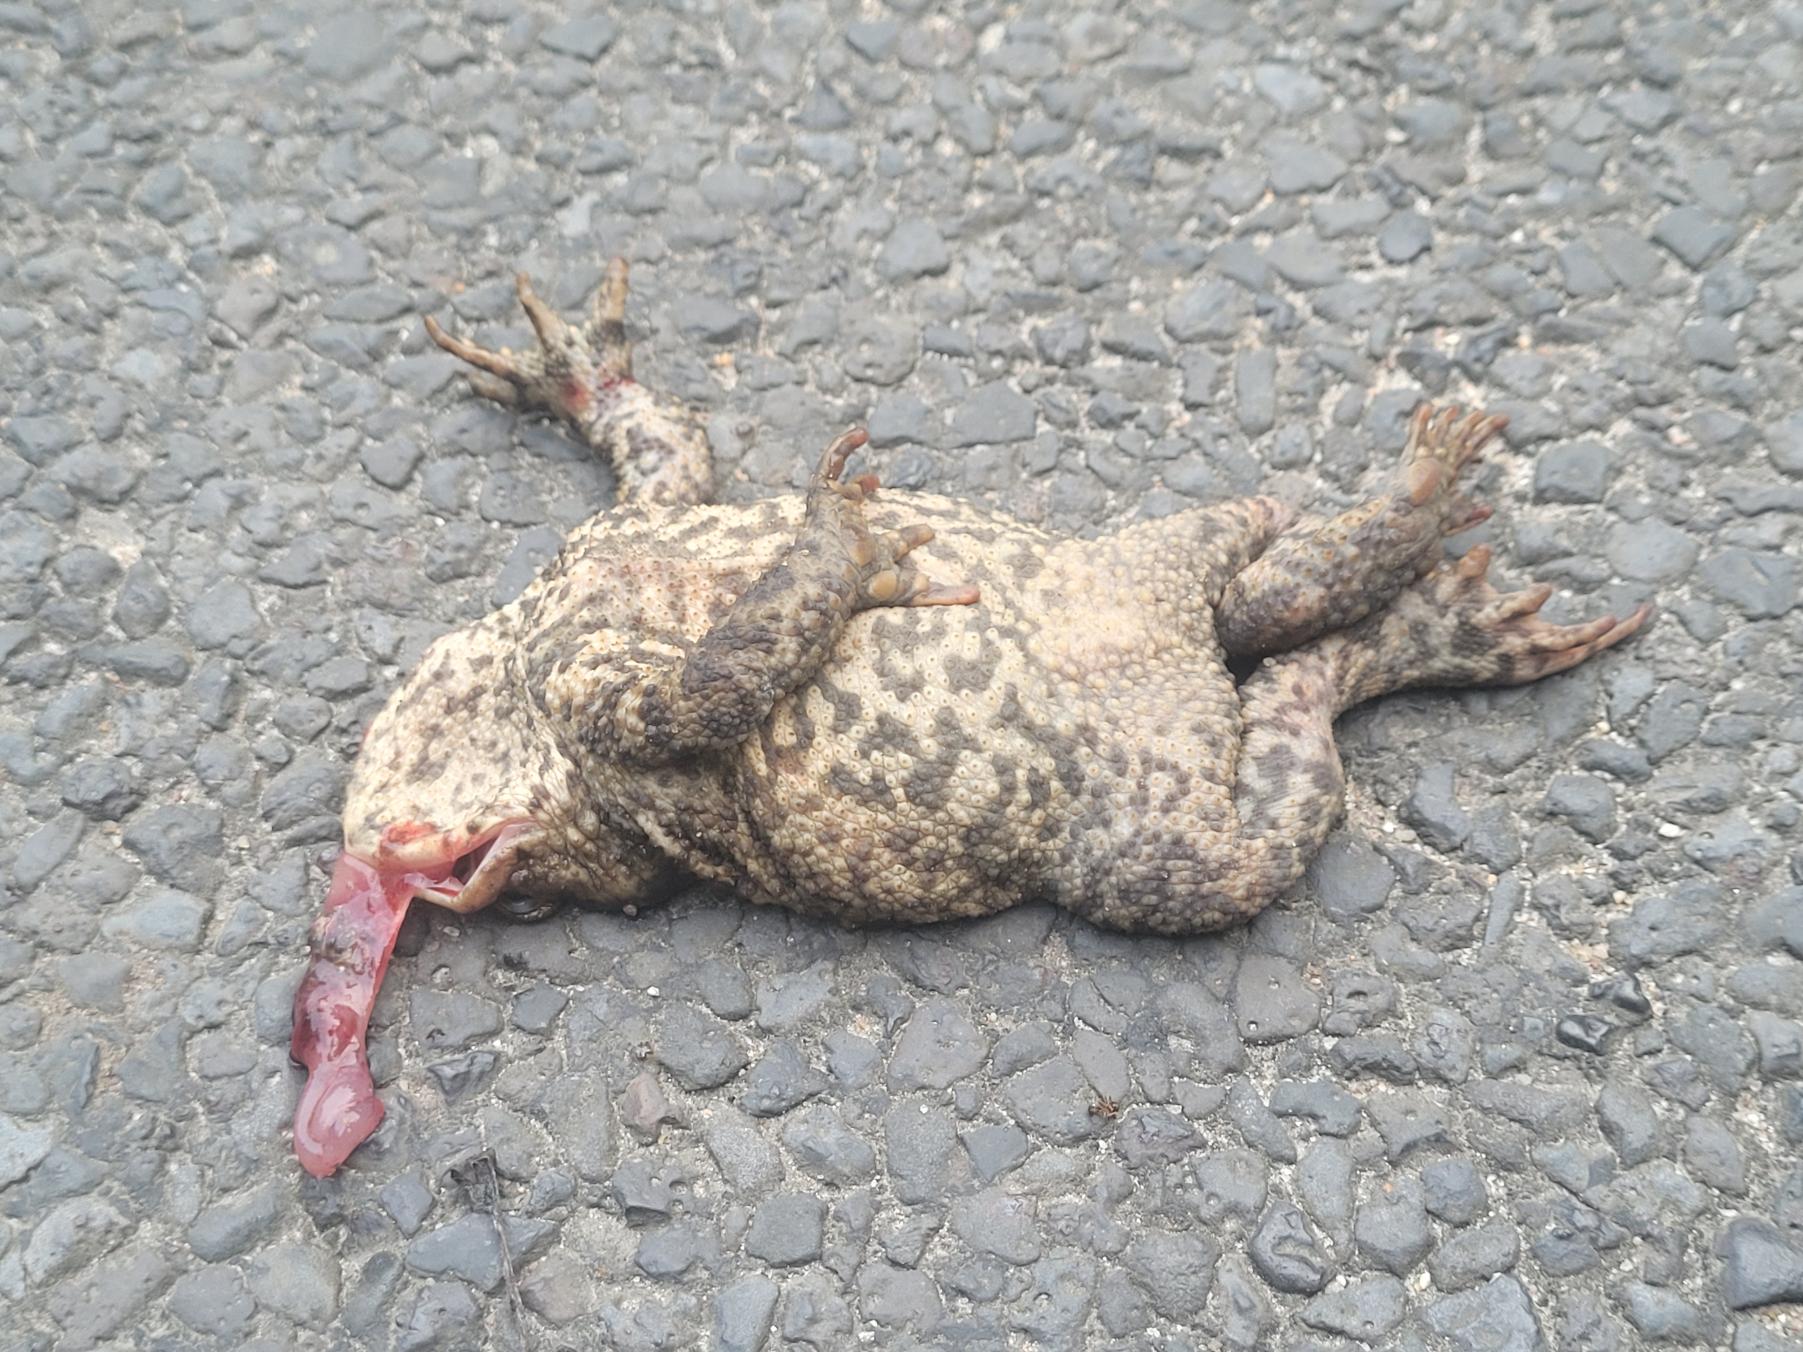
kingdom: Animalia
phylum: Chordata
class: Amphibia
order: Anura
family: Bufonidae
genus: Bufo
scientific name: Bufo bufo
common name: Skrubtudse
